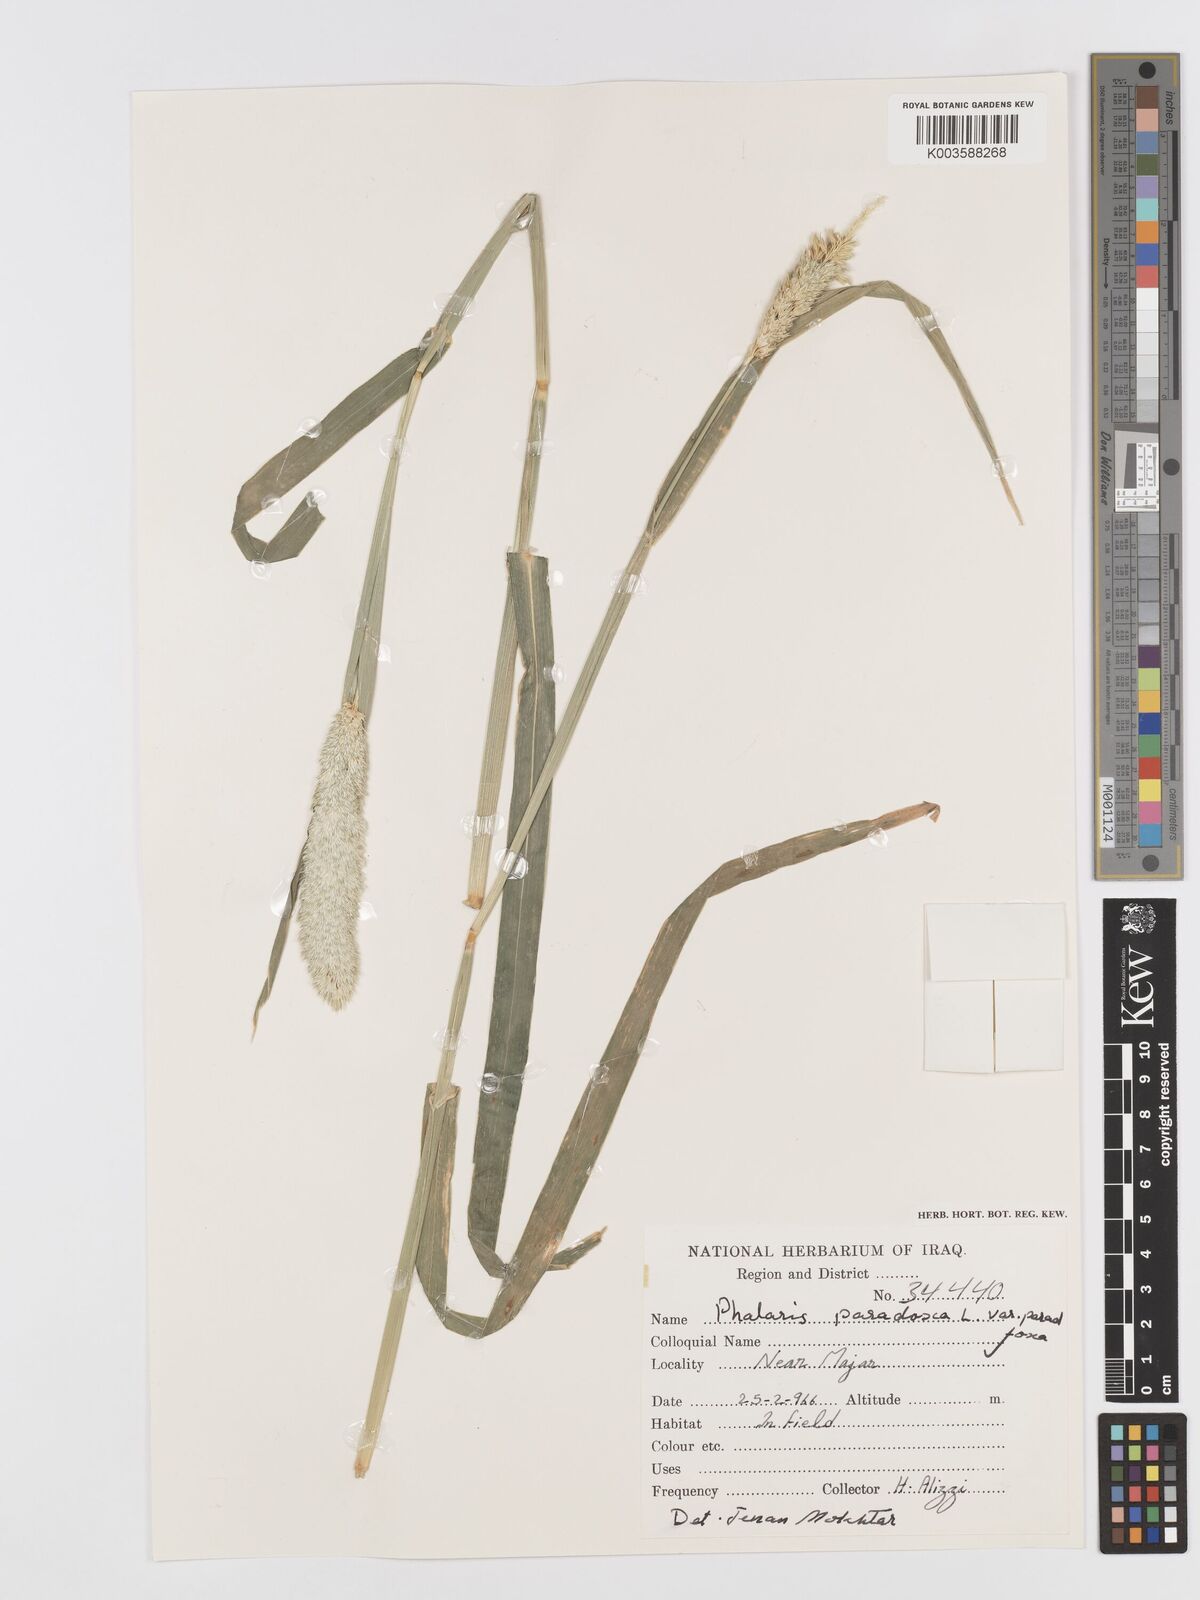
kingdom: Plantae
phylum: Tracheophyta
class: Liliopsida
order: Poales
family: Poaceae
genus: Phalaris
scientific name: Phalaris paradoxa
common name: Awned canary-grass
